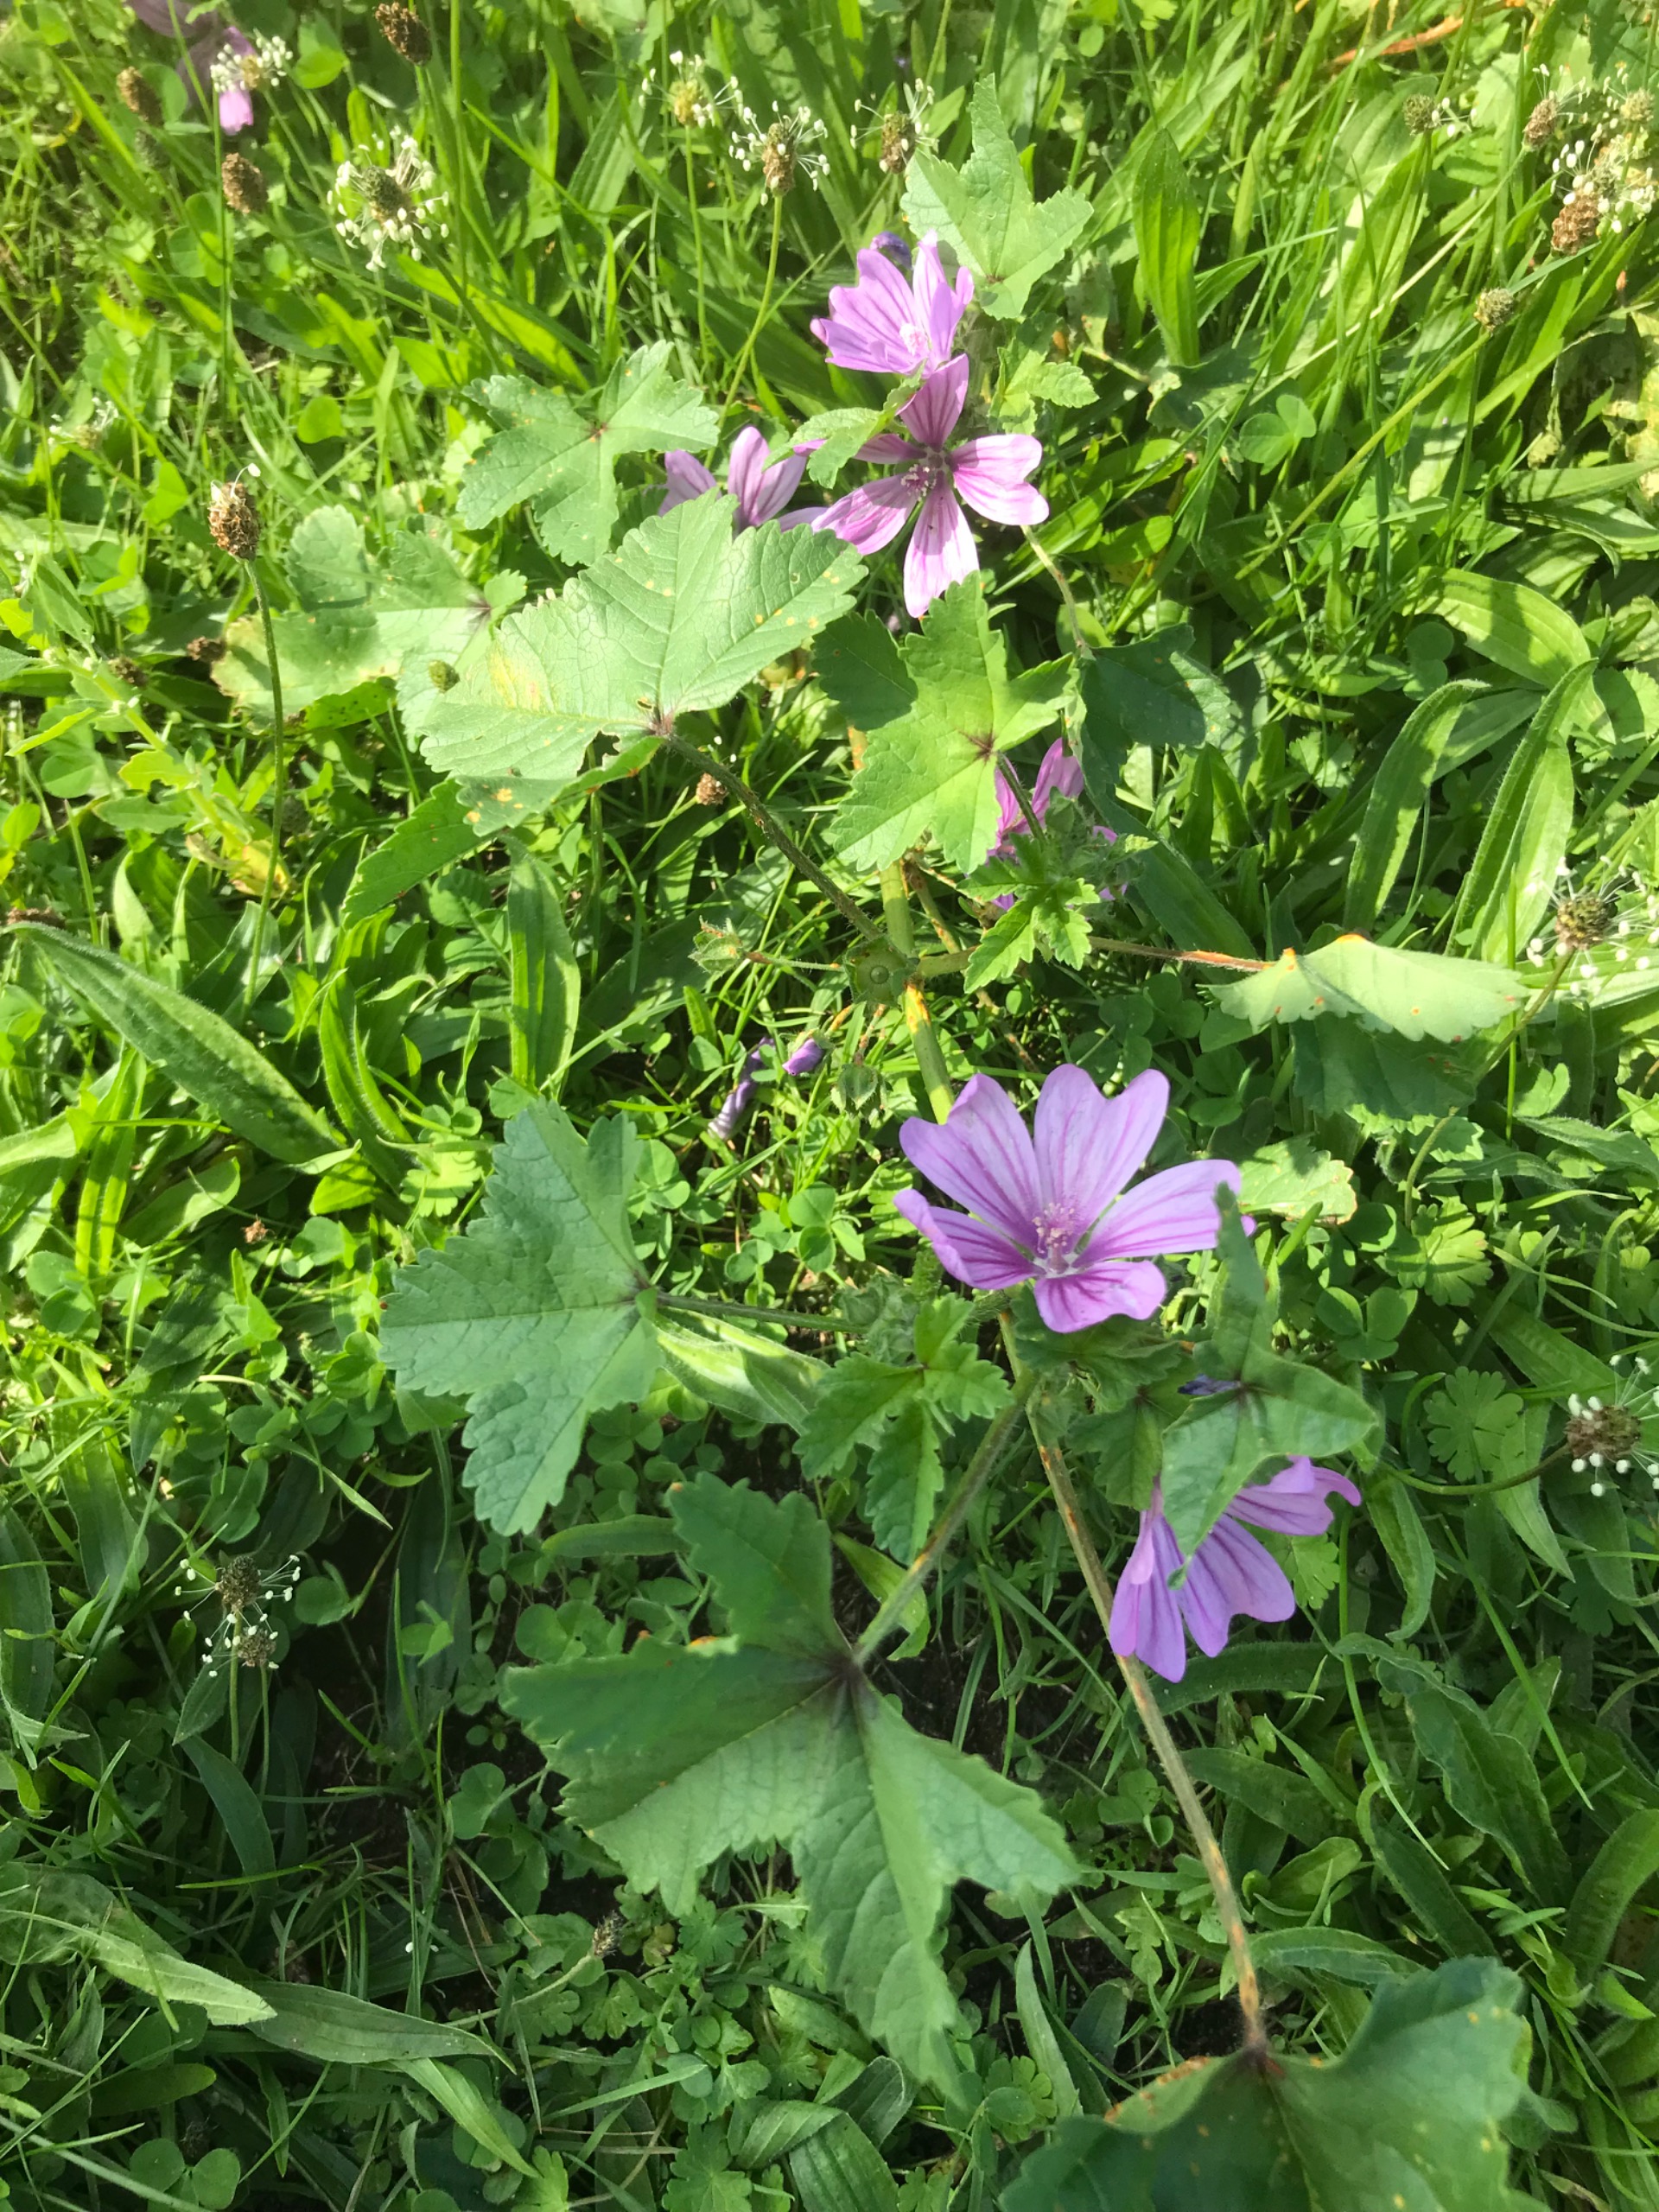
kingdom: Plantae
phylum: Tracheophyta
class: Magnoliopsida
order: Malvales
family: Malvaceae
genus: Malva
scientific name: Malva sylvestris
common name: Almindelig katost
